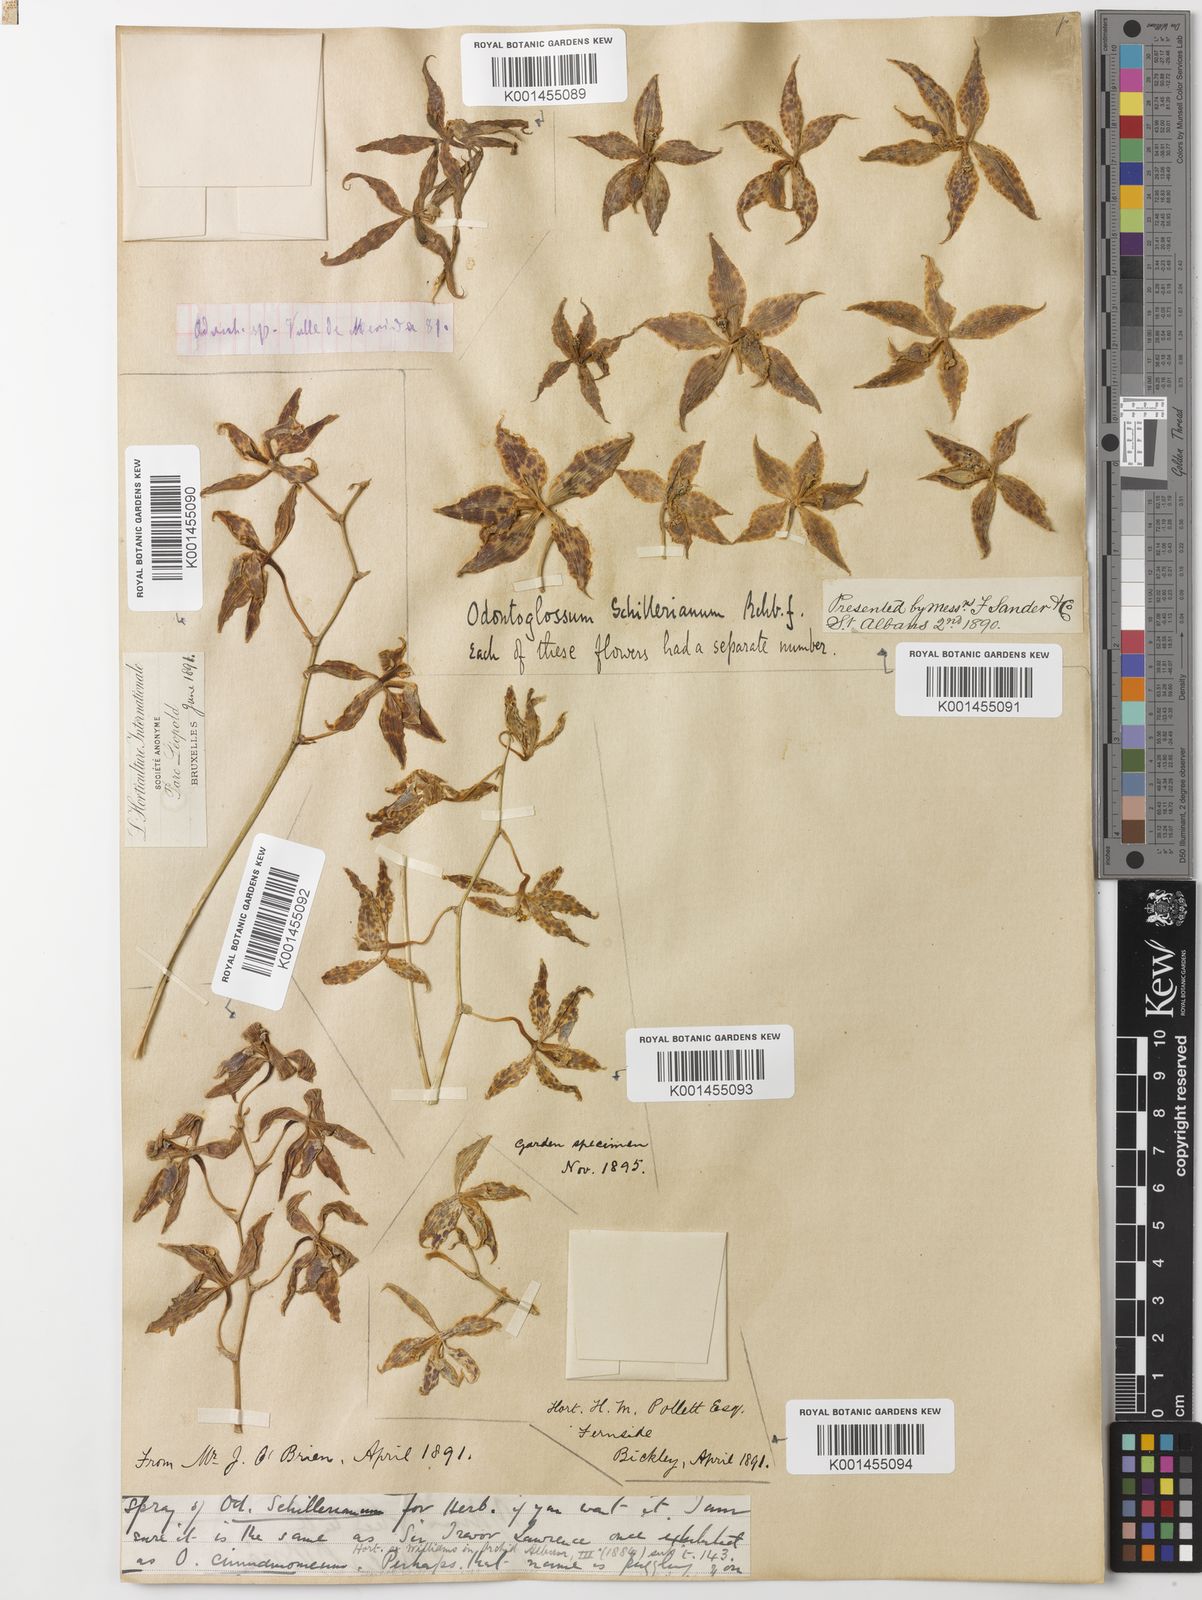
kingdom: Plantae
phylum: Tracheophyta
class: Liliopsida
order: Asparagales
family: Orchidaceae
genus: Oncidium
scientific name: Oncidium cinnamomeum
